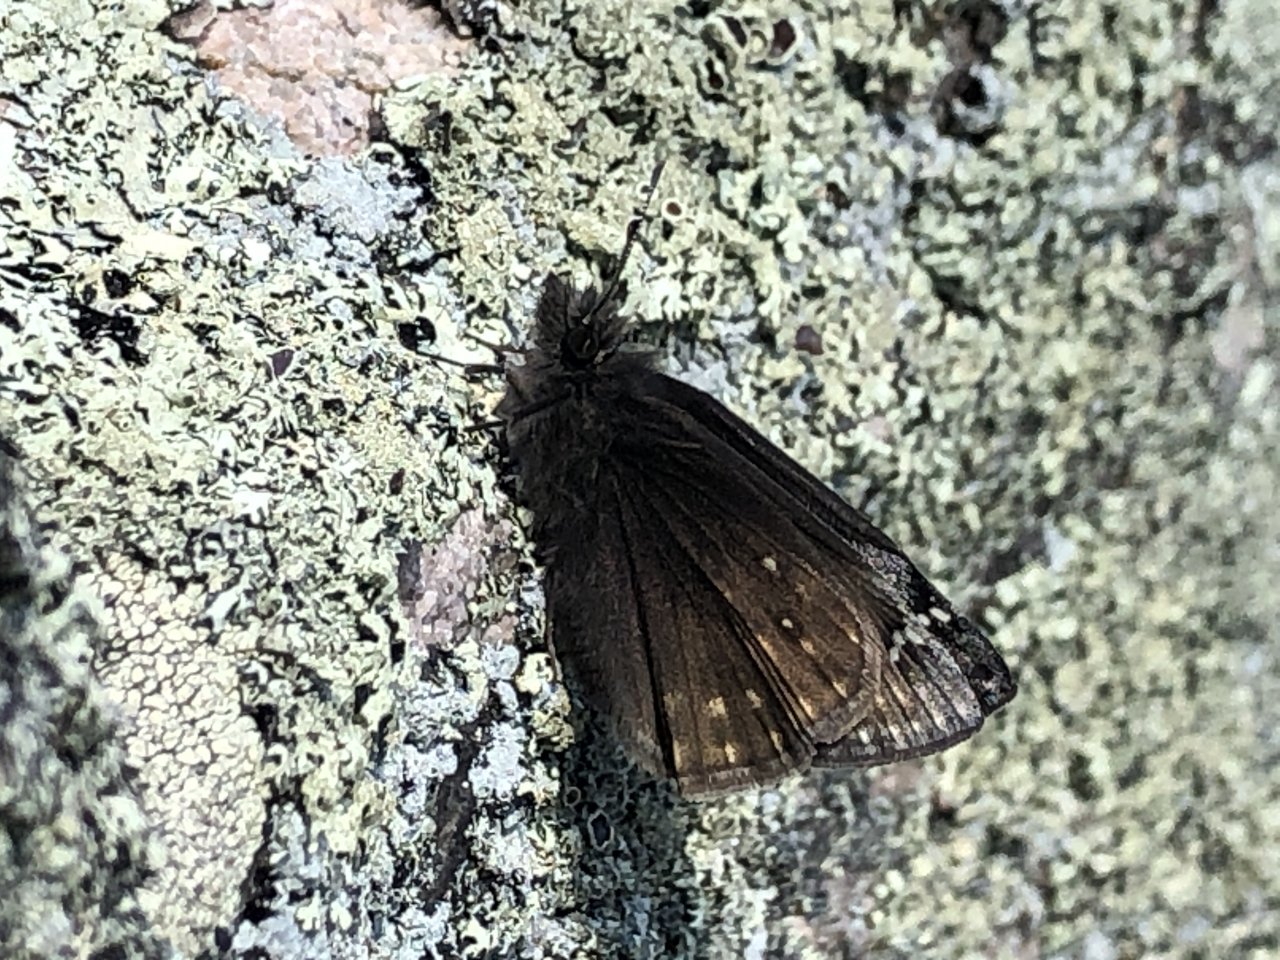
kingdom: Animalia
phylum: Arthropoda
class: Insecta
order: Lepidoptera
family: Hesperiidae
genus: Gesta
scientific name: Gesta
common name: Juvenal's Duskywing
